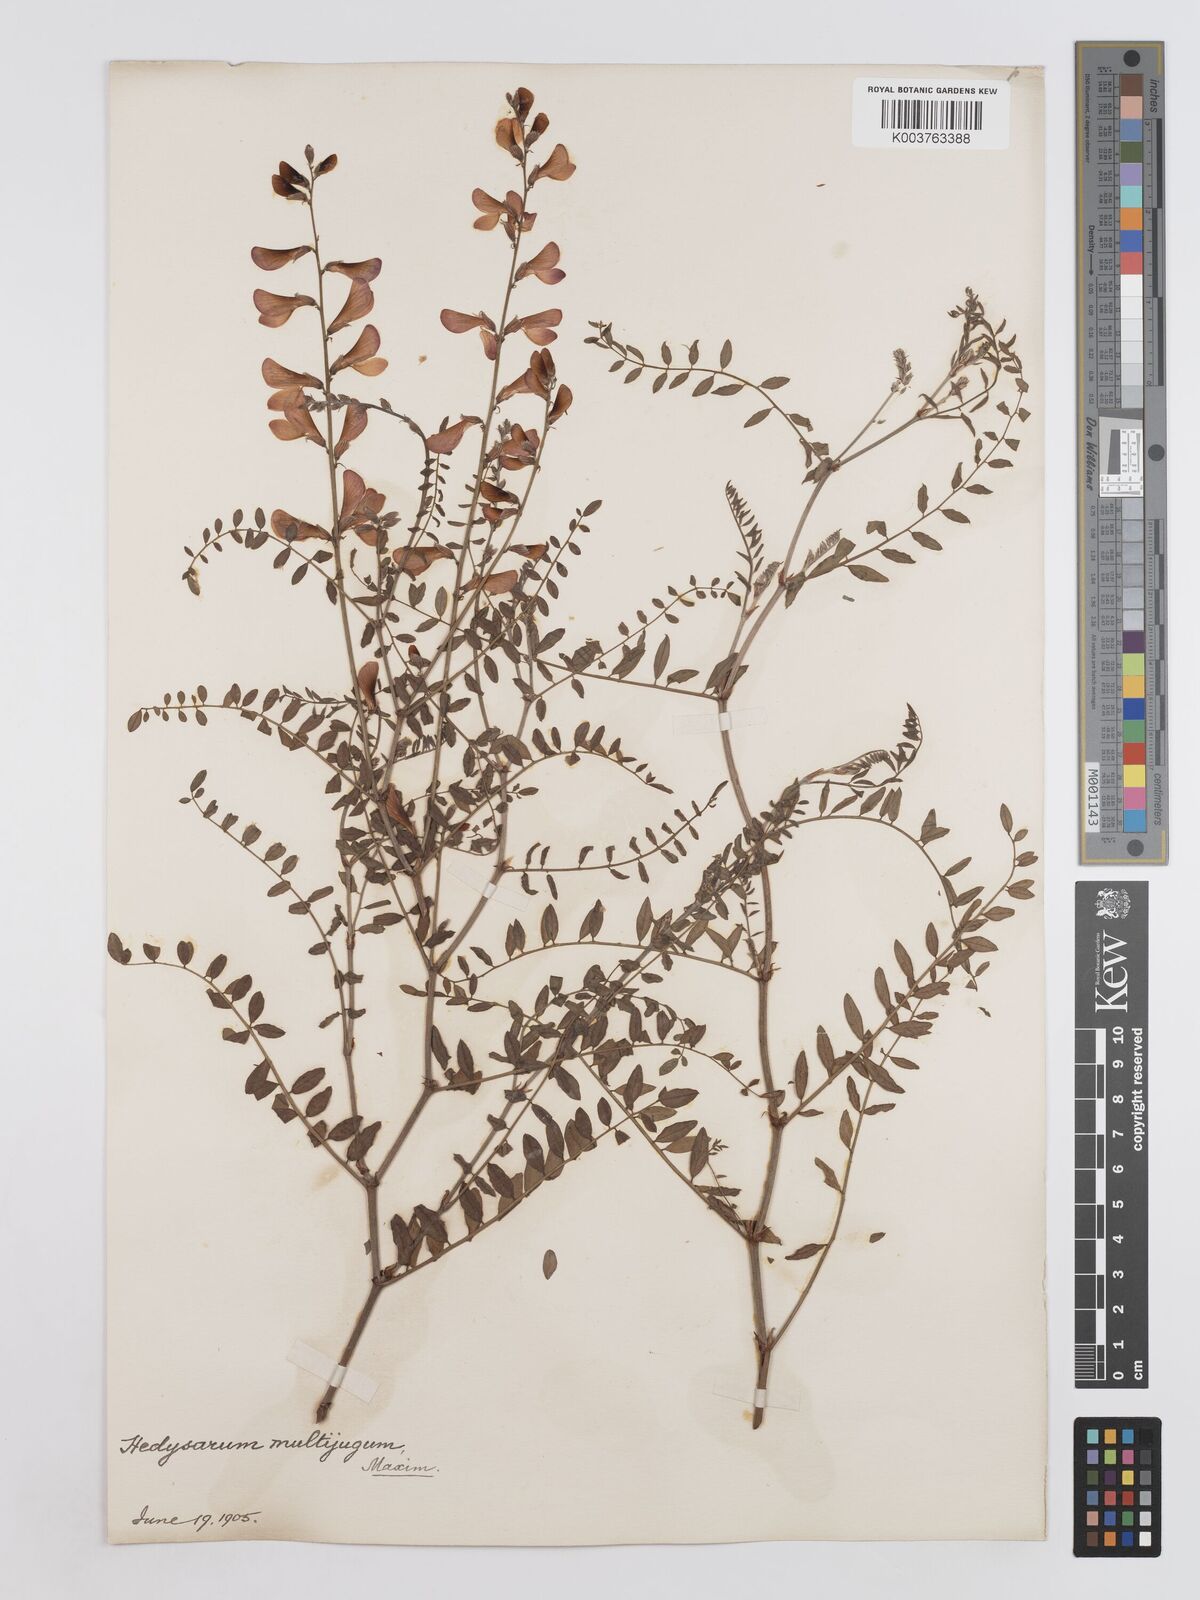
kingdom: Plantae
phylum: Tracheophyta
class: Magnoliopsida
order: Fabales
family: Fabaceae
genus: Corethrodendron
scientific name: Corethrodendron multijugum
